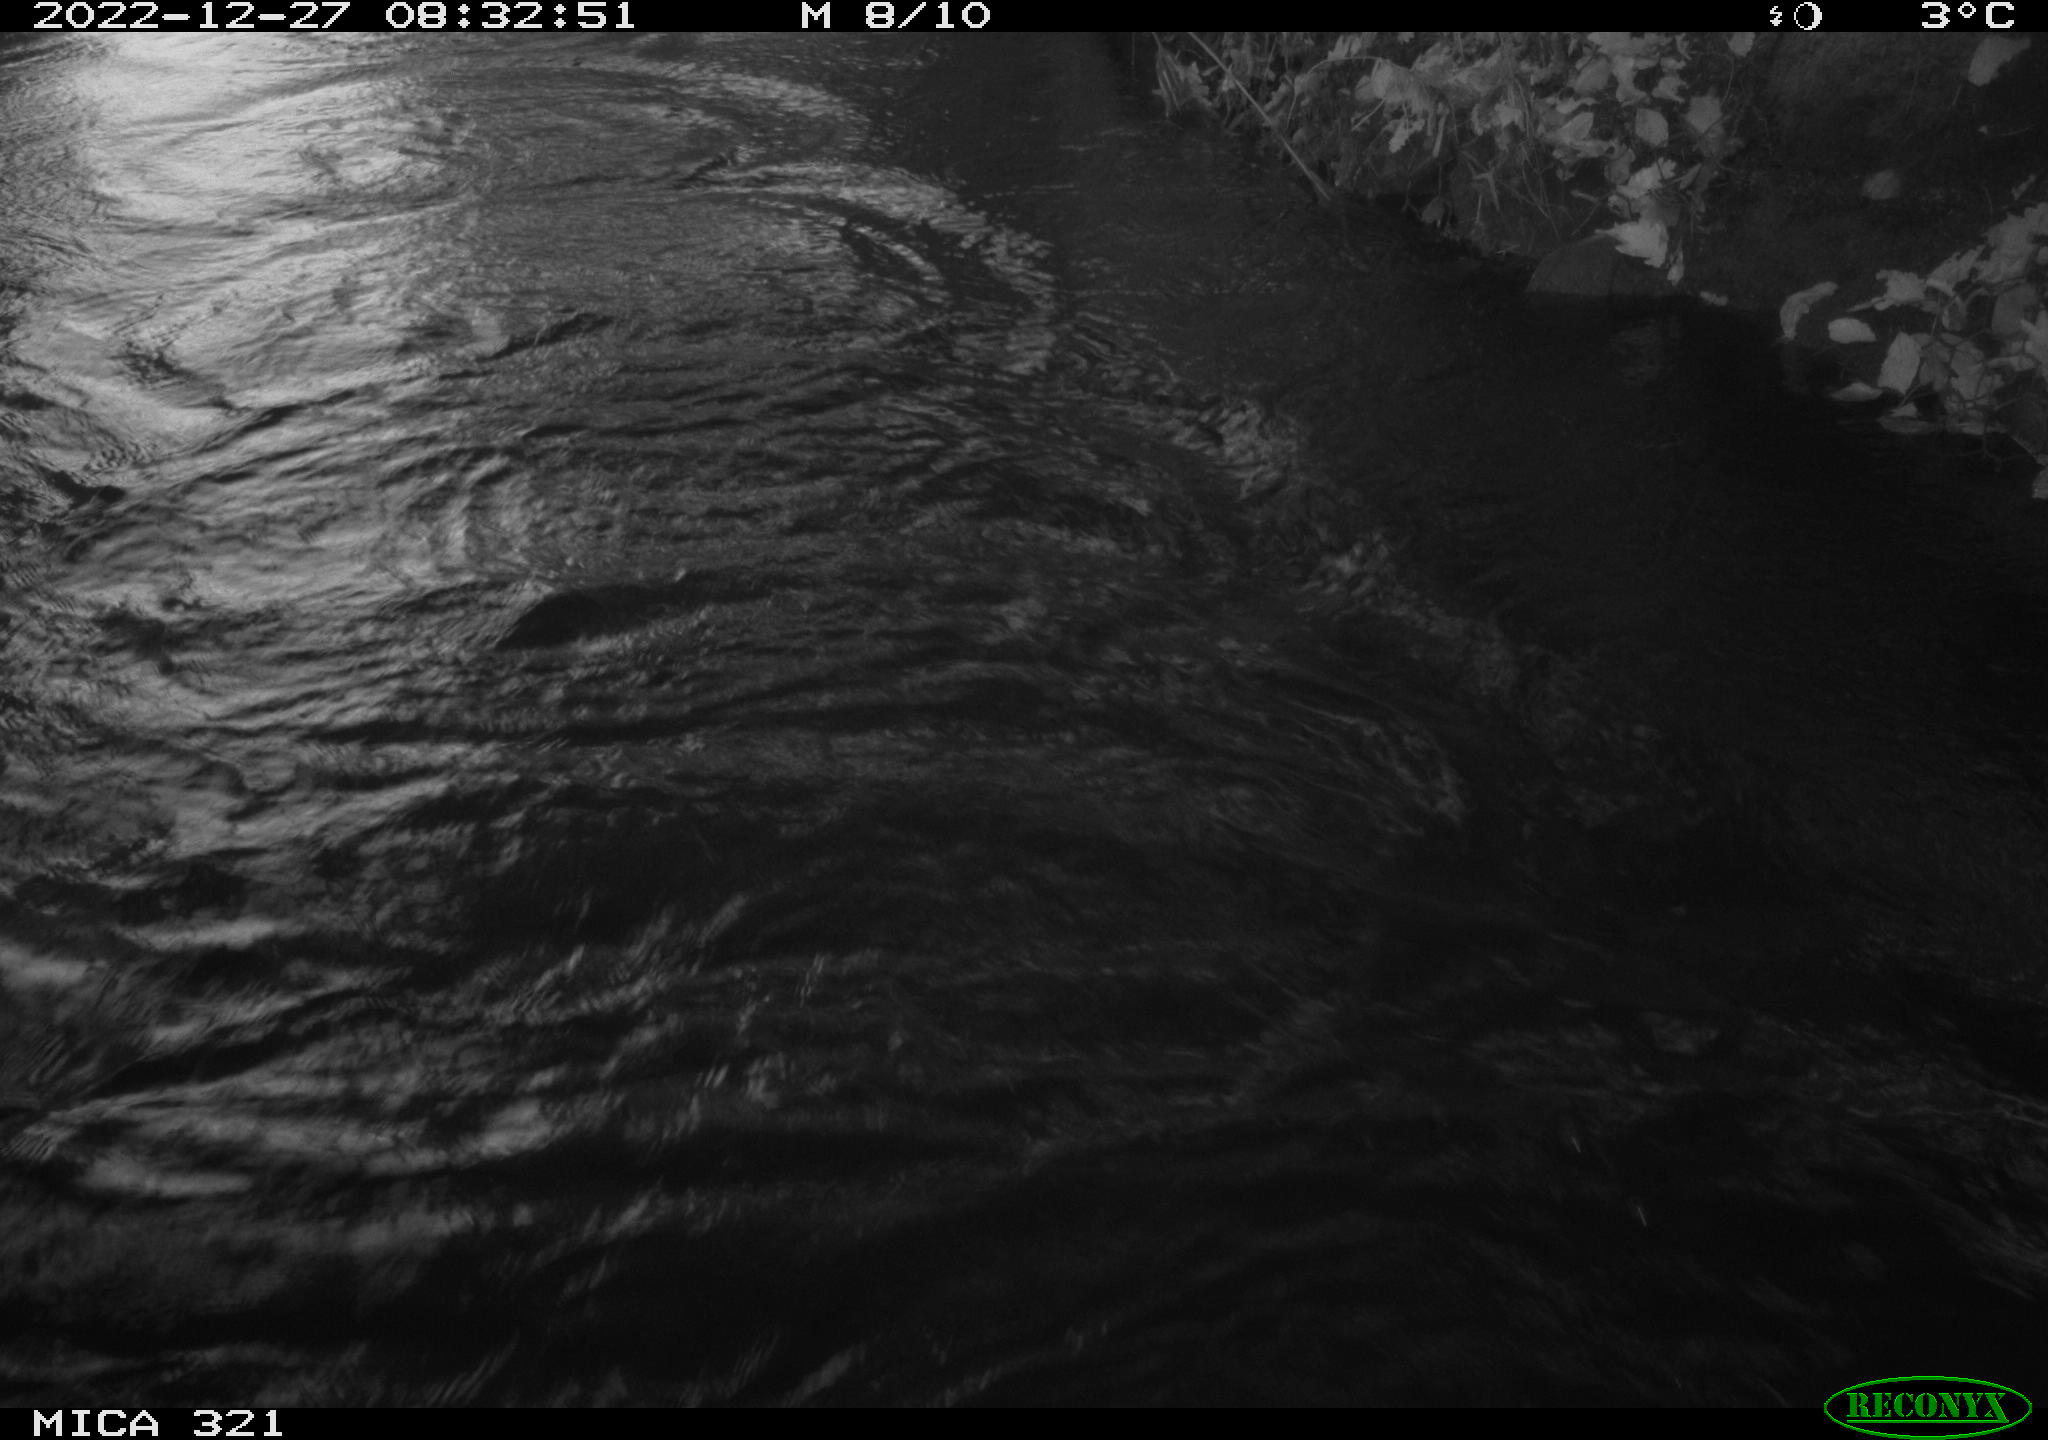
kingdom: Animalia
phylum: Chordata
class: Aves
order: Pelecaniformes
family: Ardeidae
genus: Ardea
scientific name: Ardea cinerea
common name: Grey heron
